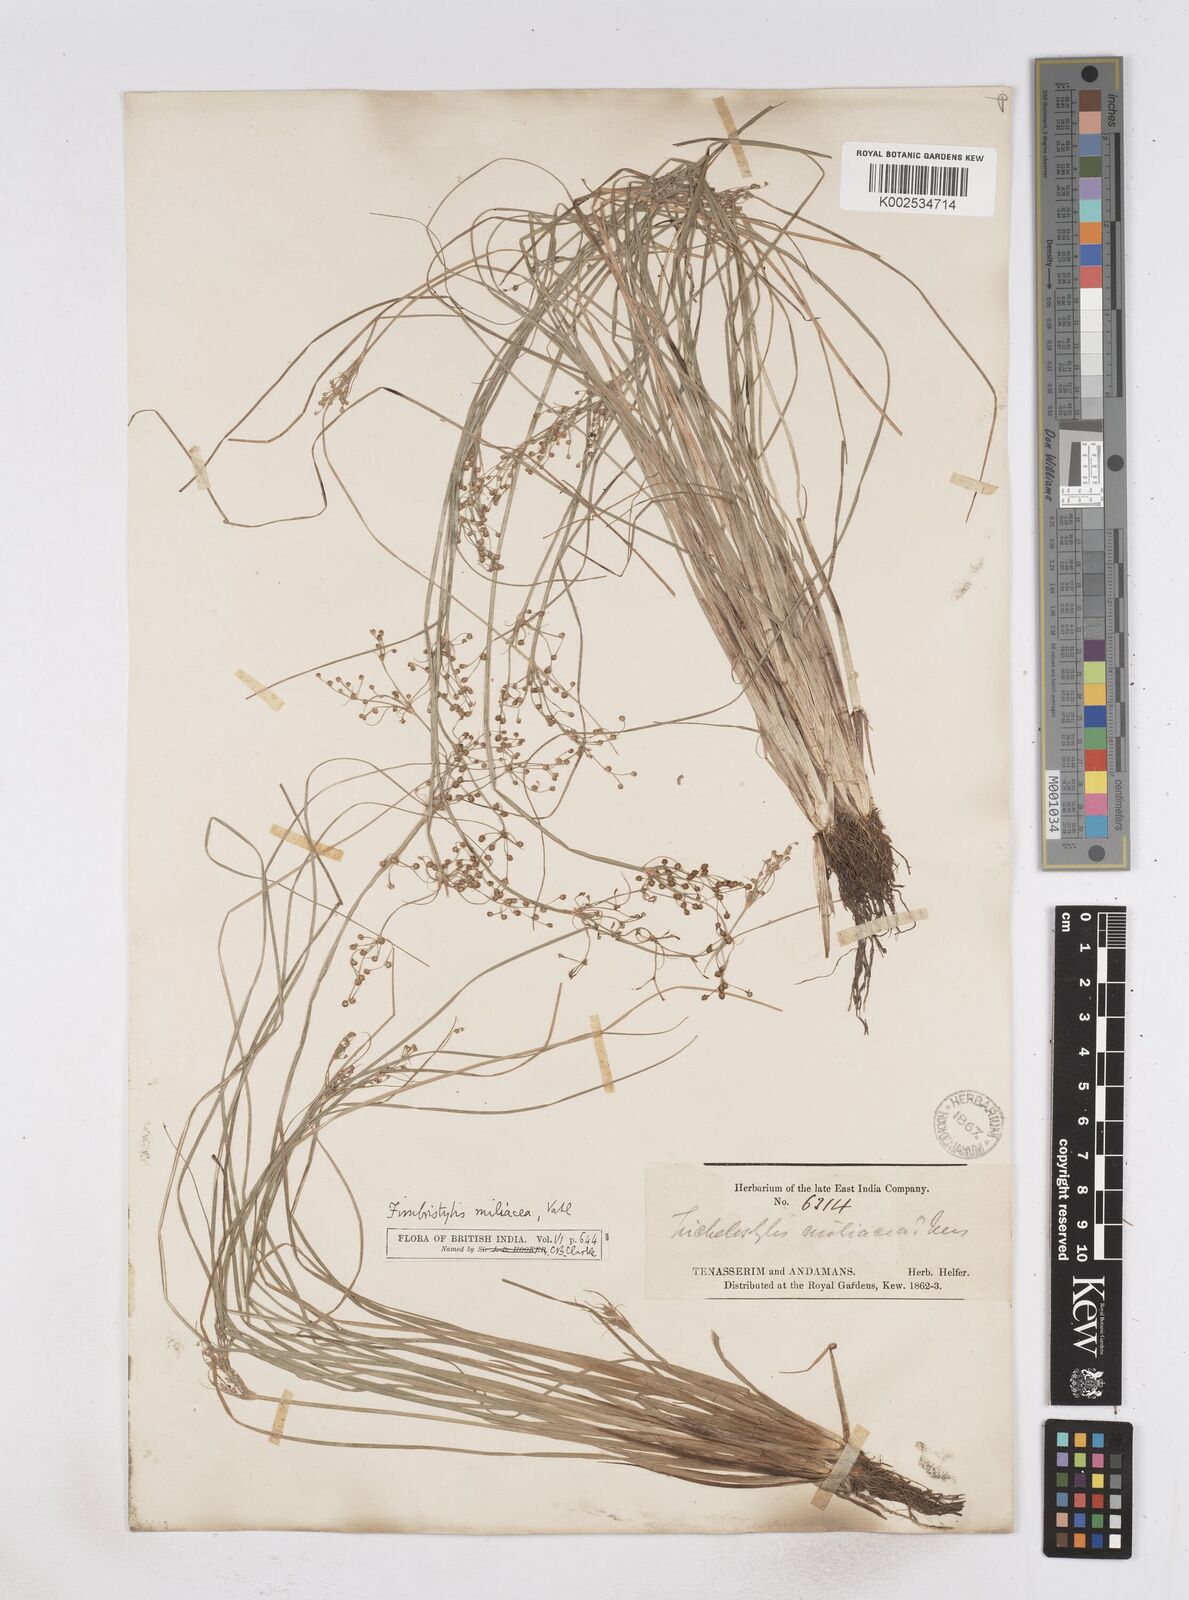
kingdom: Plantae
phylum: Tracheophyta
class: Liliopsida
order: Poales
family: Cyperaceae
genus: Fimbristylis
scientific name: Fimbristylis littoralis
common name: Fimbry
